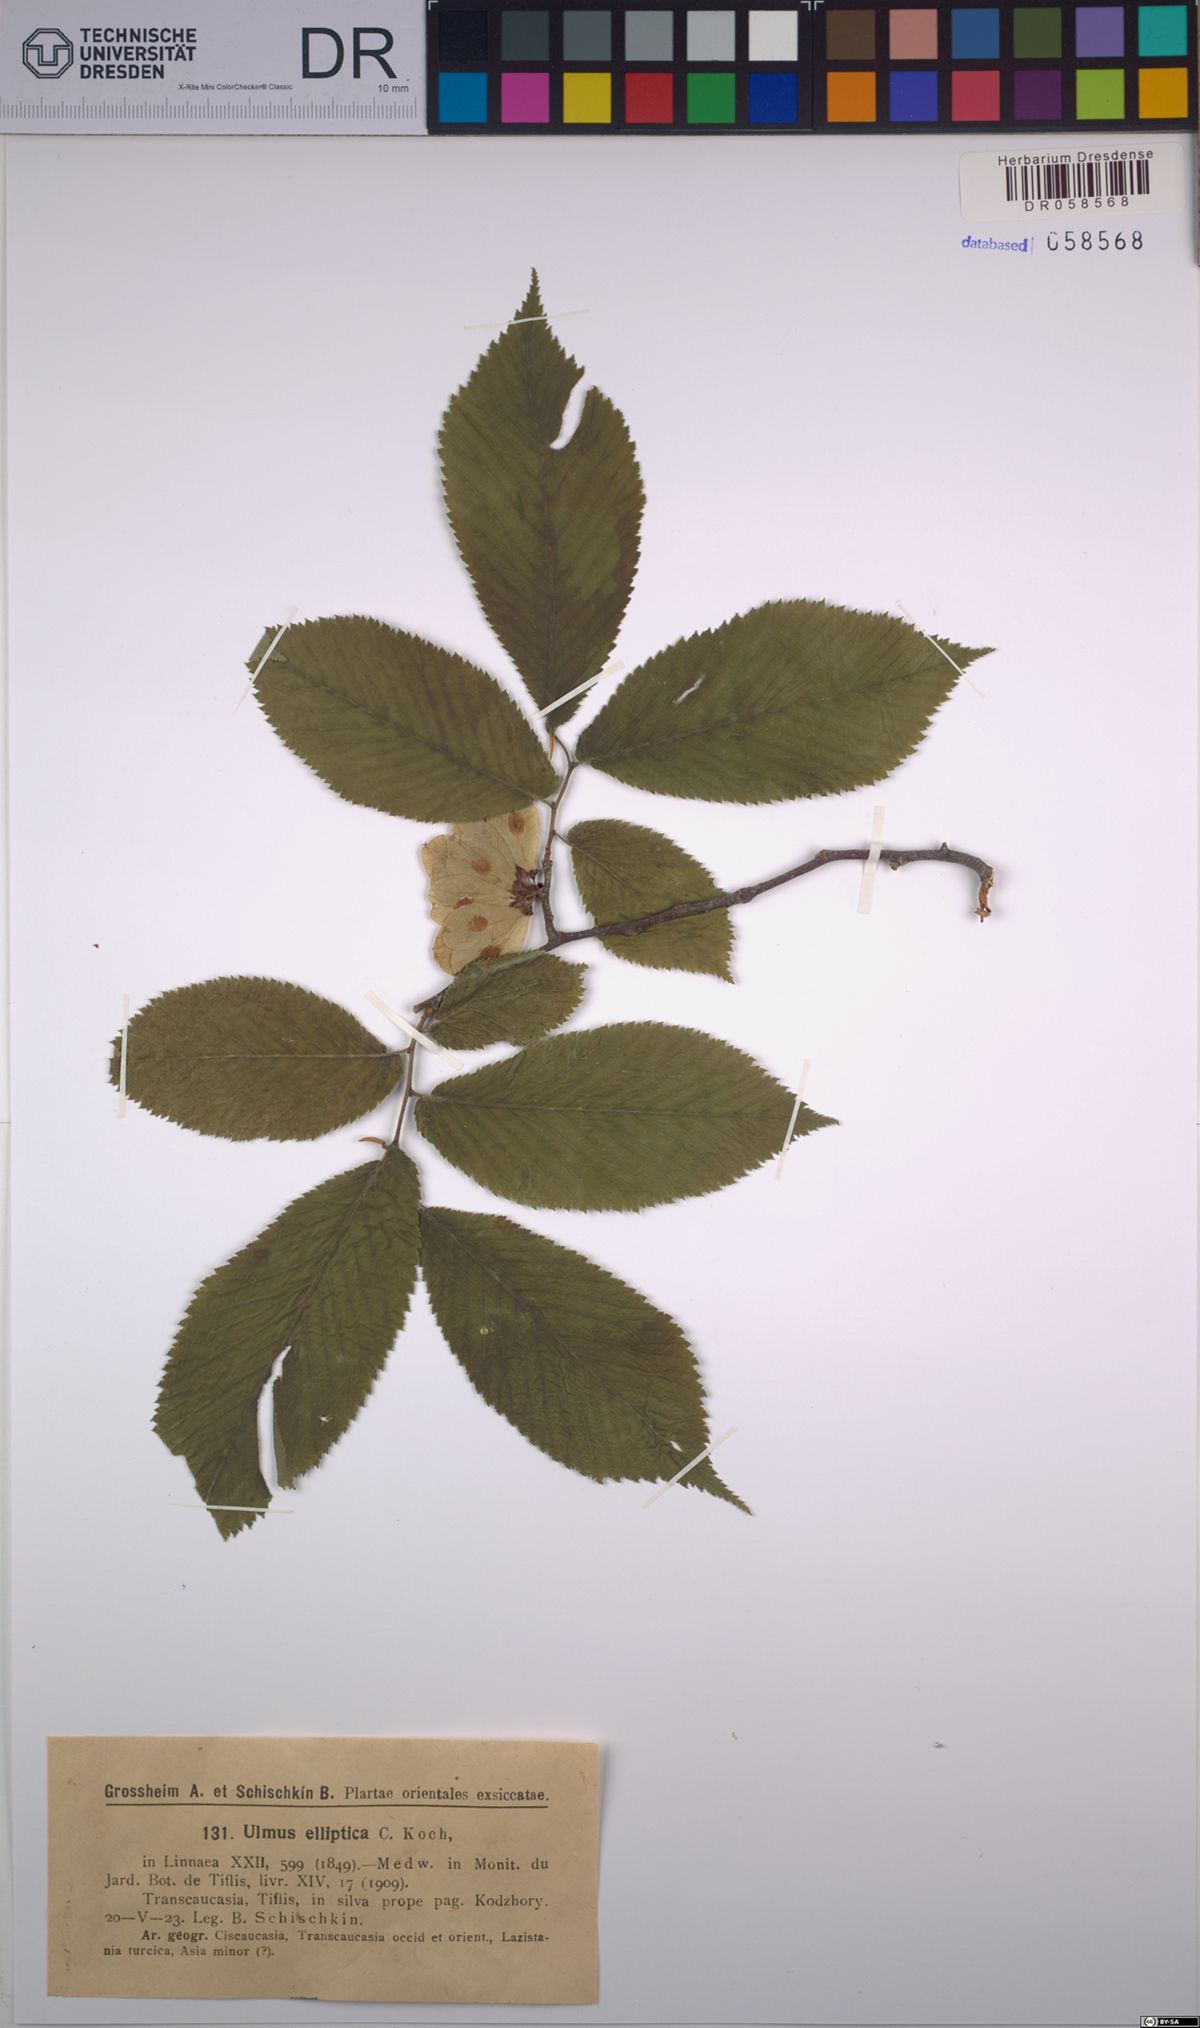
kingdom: Plantae
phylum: Tracheophyta
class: Magnoliopsida
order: Rosales
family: Ulmaceae
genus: Ulmus
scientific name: Ulmus elliptica
